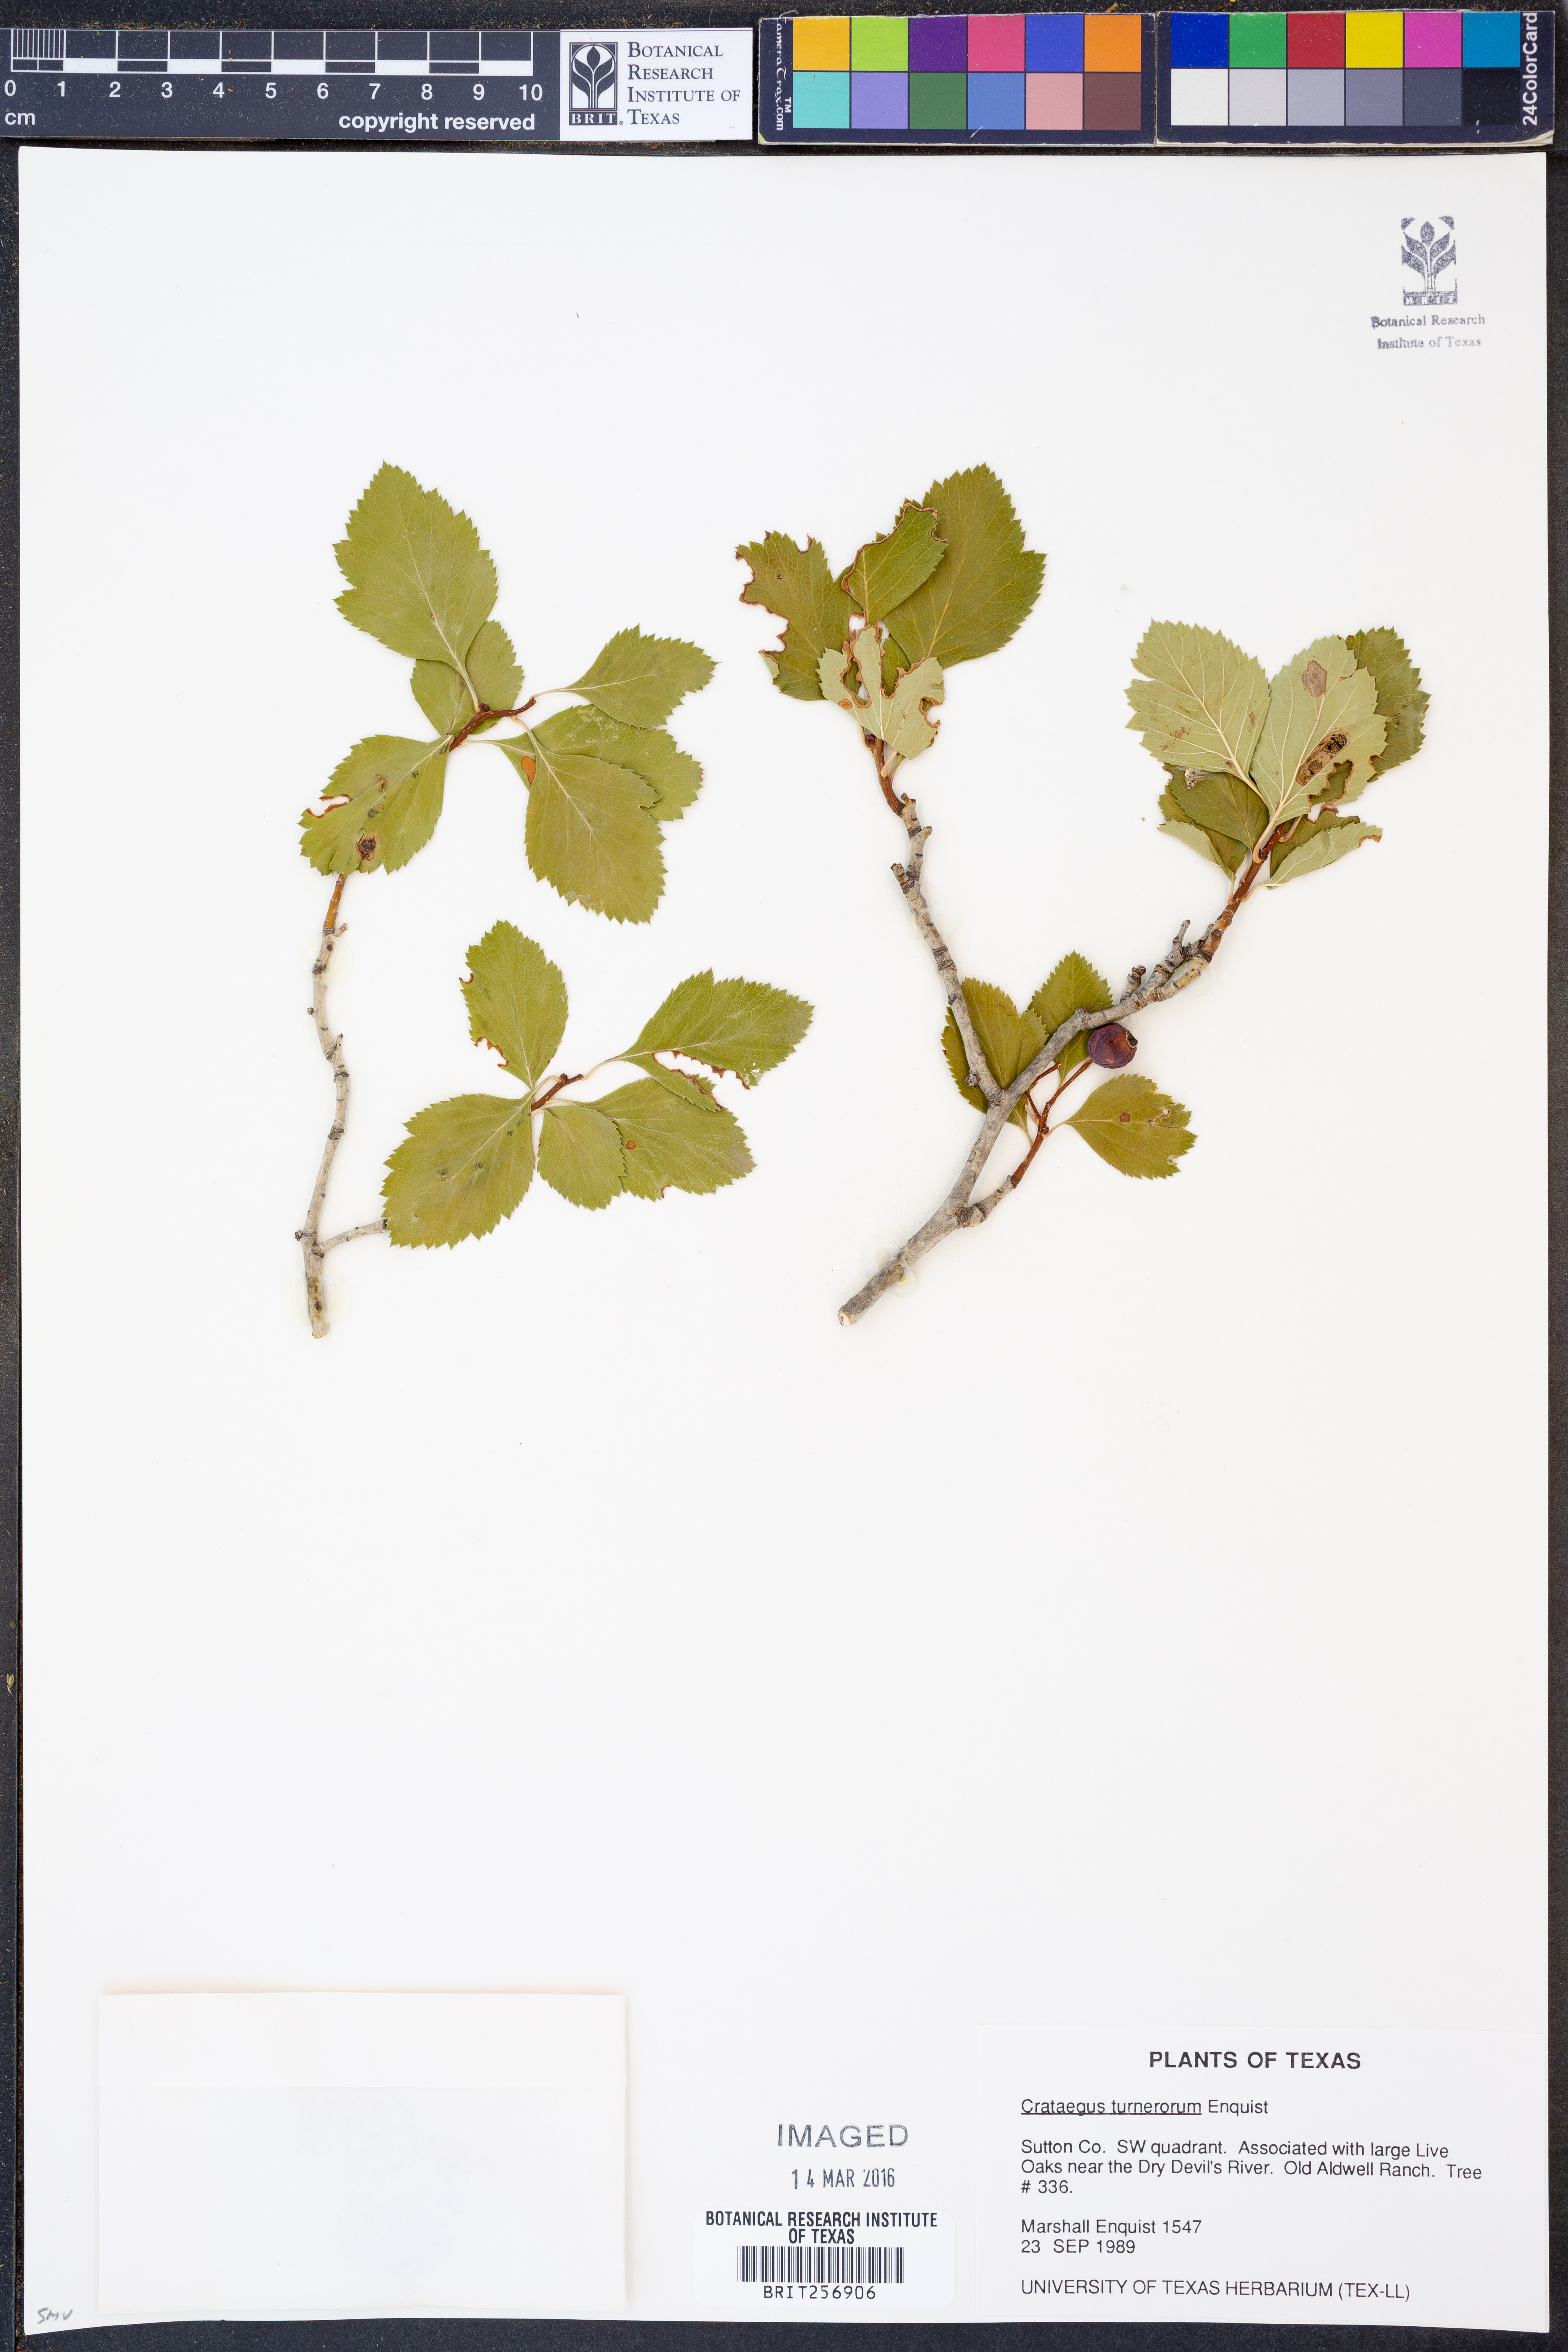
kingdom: Plantae
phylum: Tracheophyta
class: Magnoliopsida
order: Rosales
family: Rosaceae
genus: Crataegus
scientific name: Crataegus turnerorum
